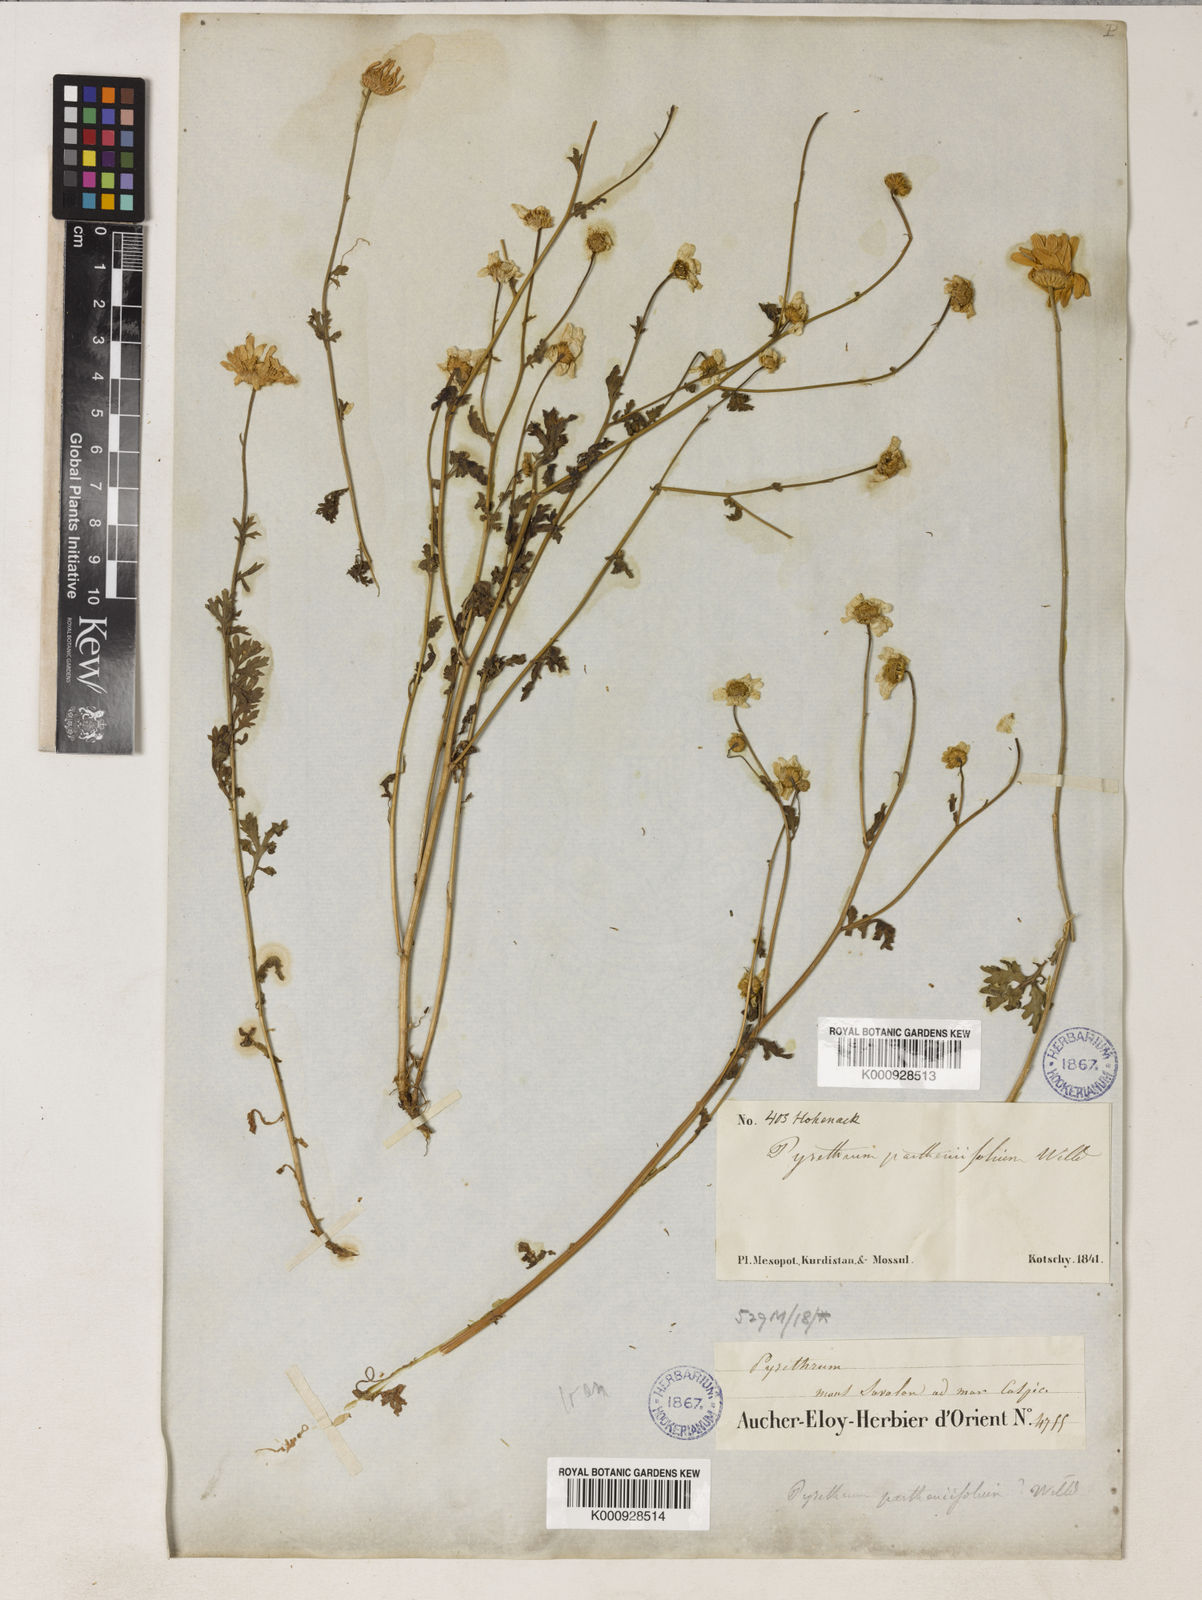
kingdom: Plantae
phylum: Tracheophyta
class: Magnoliopsida
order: Asterales
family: Asteraceae
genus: Tanacetum
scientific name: Tanacetum
